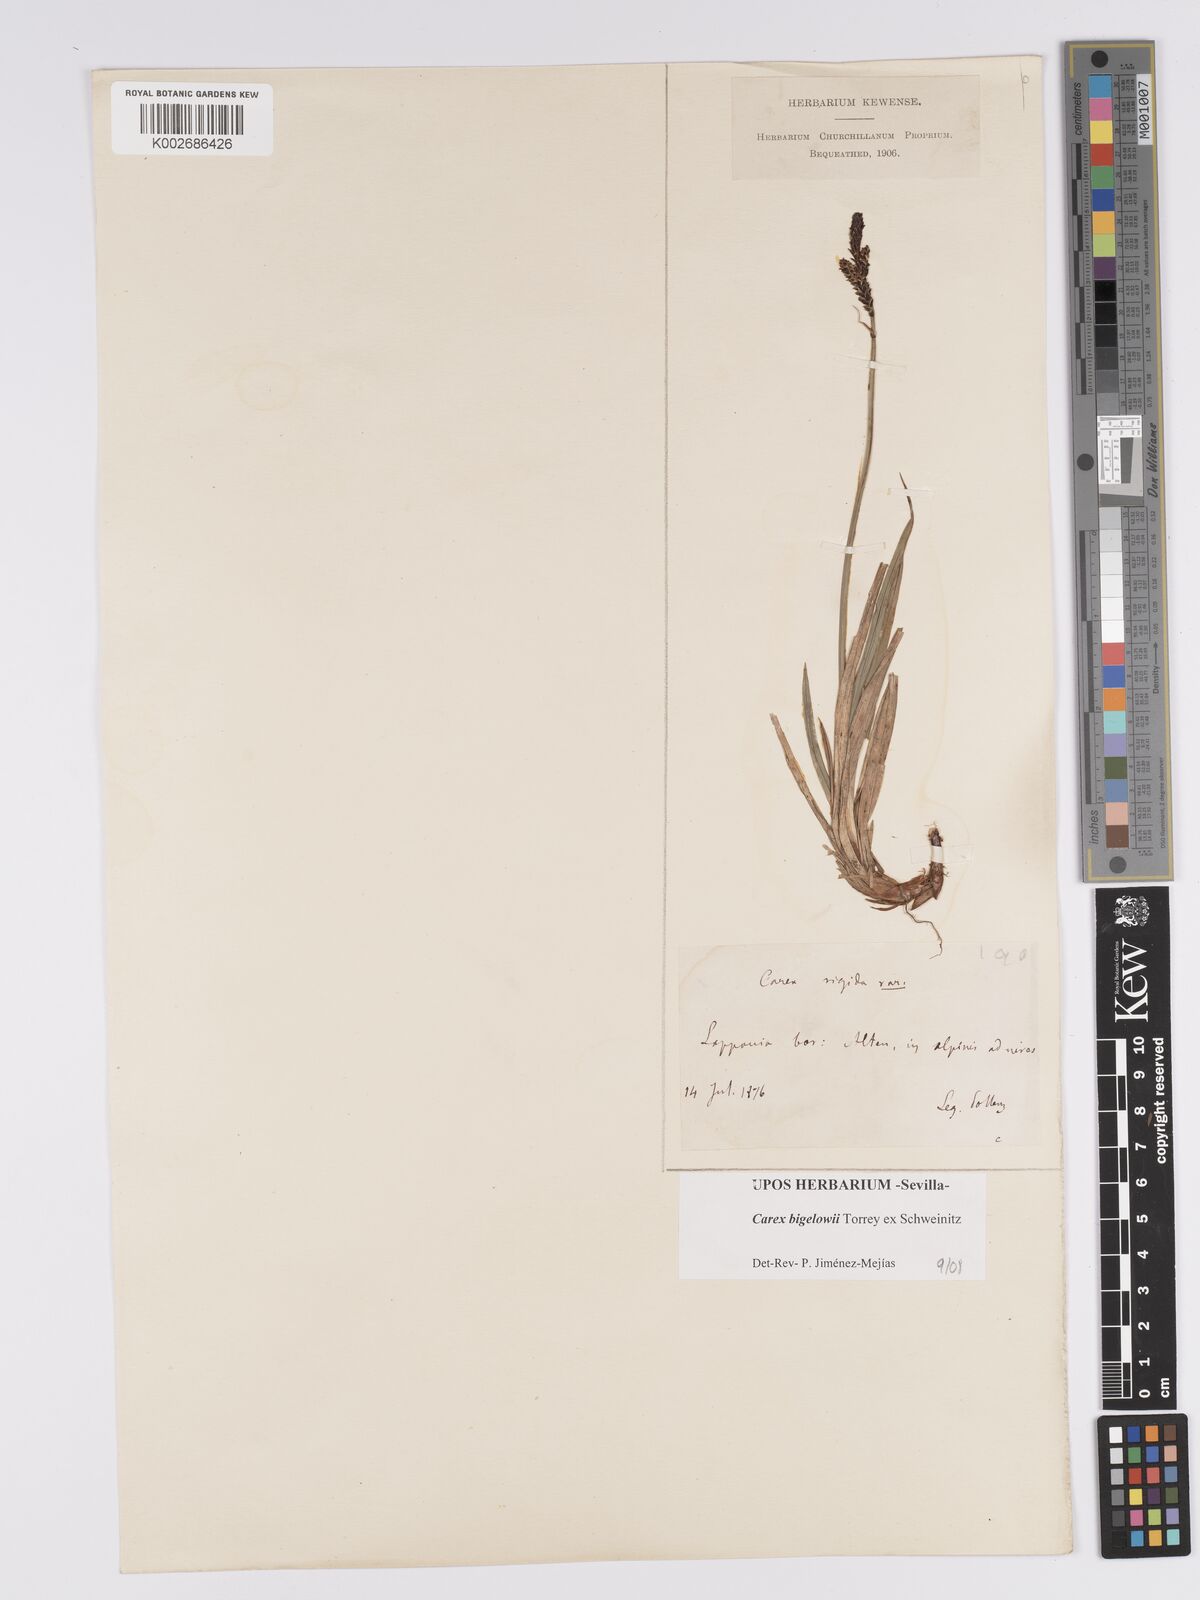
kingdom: Plantae
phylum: Tracheophyta
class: Liliopsida
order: Poales
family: Cyperaceae
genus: Carex
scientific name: Carex bigelowii
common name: Stiff sedge
